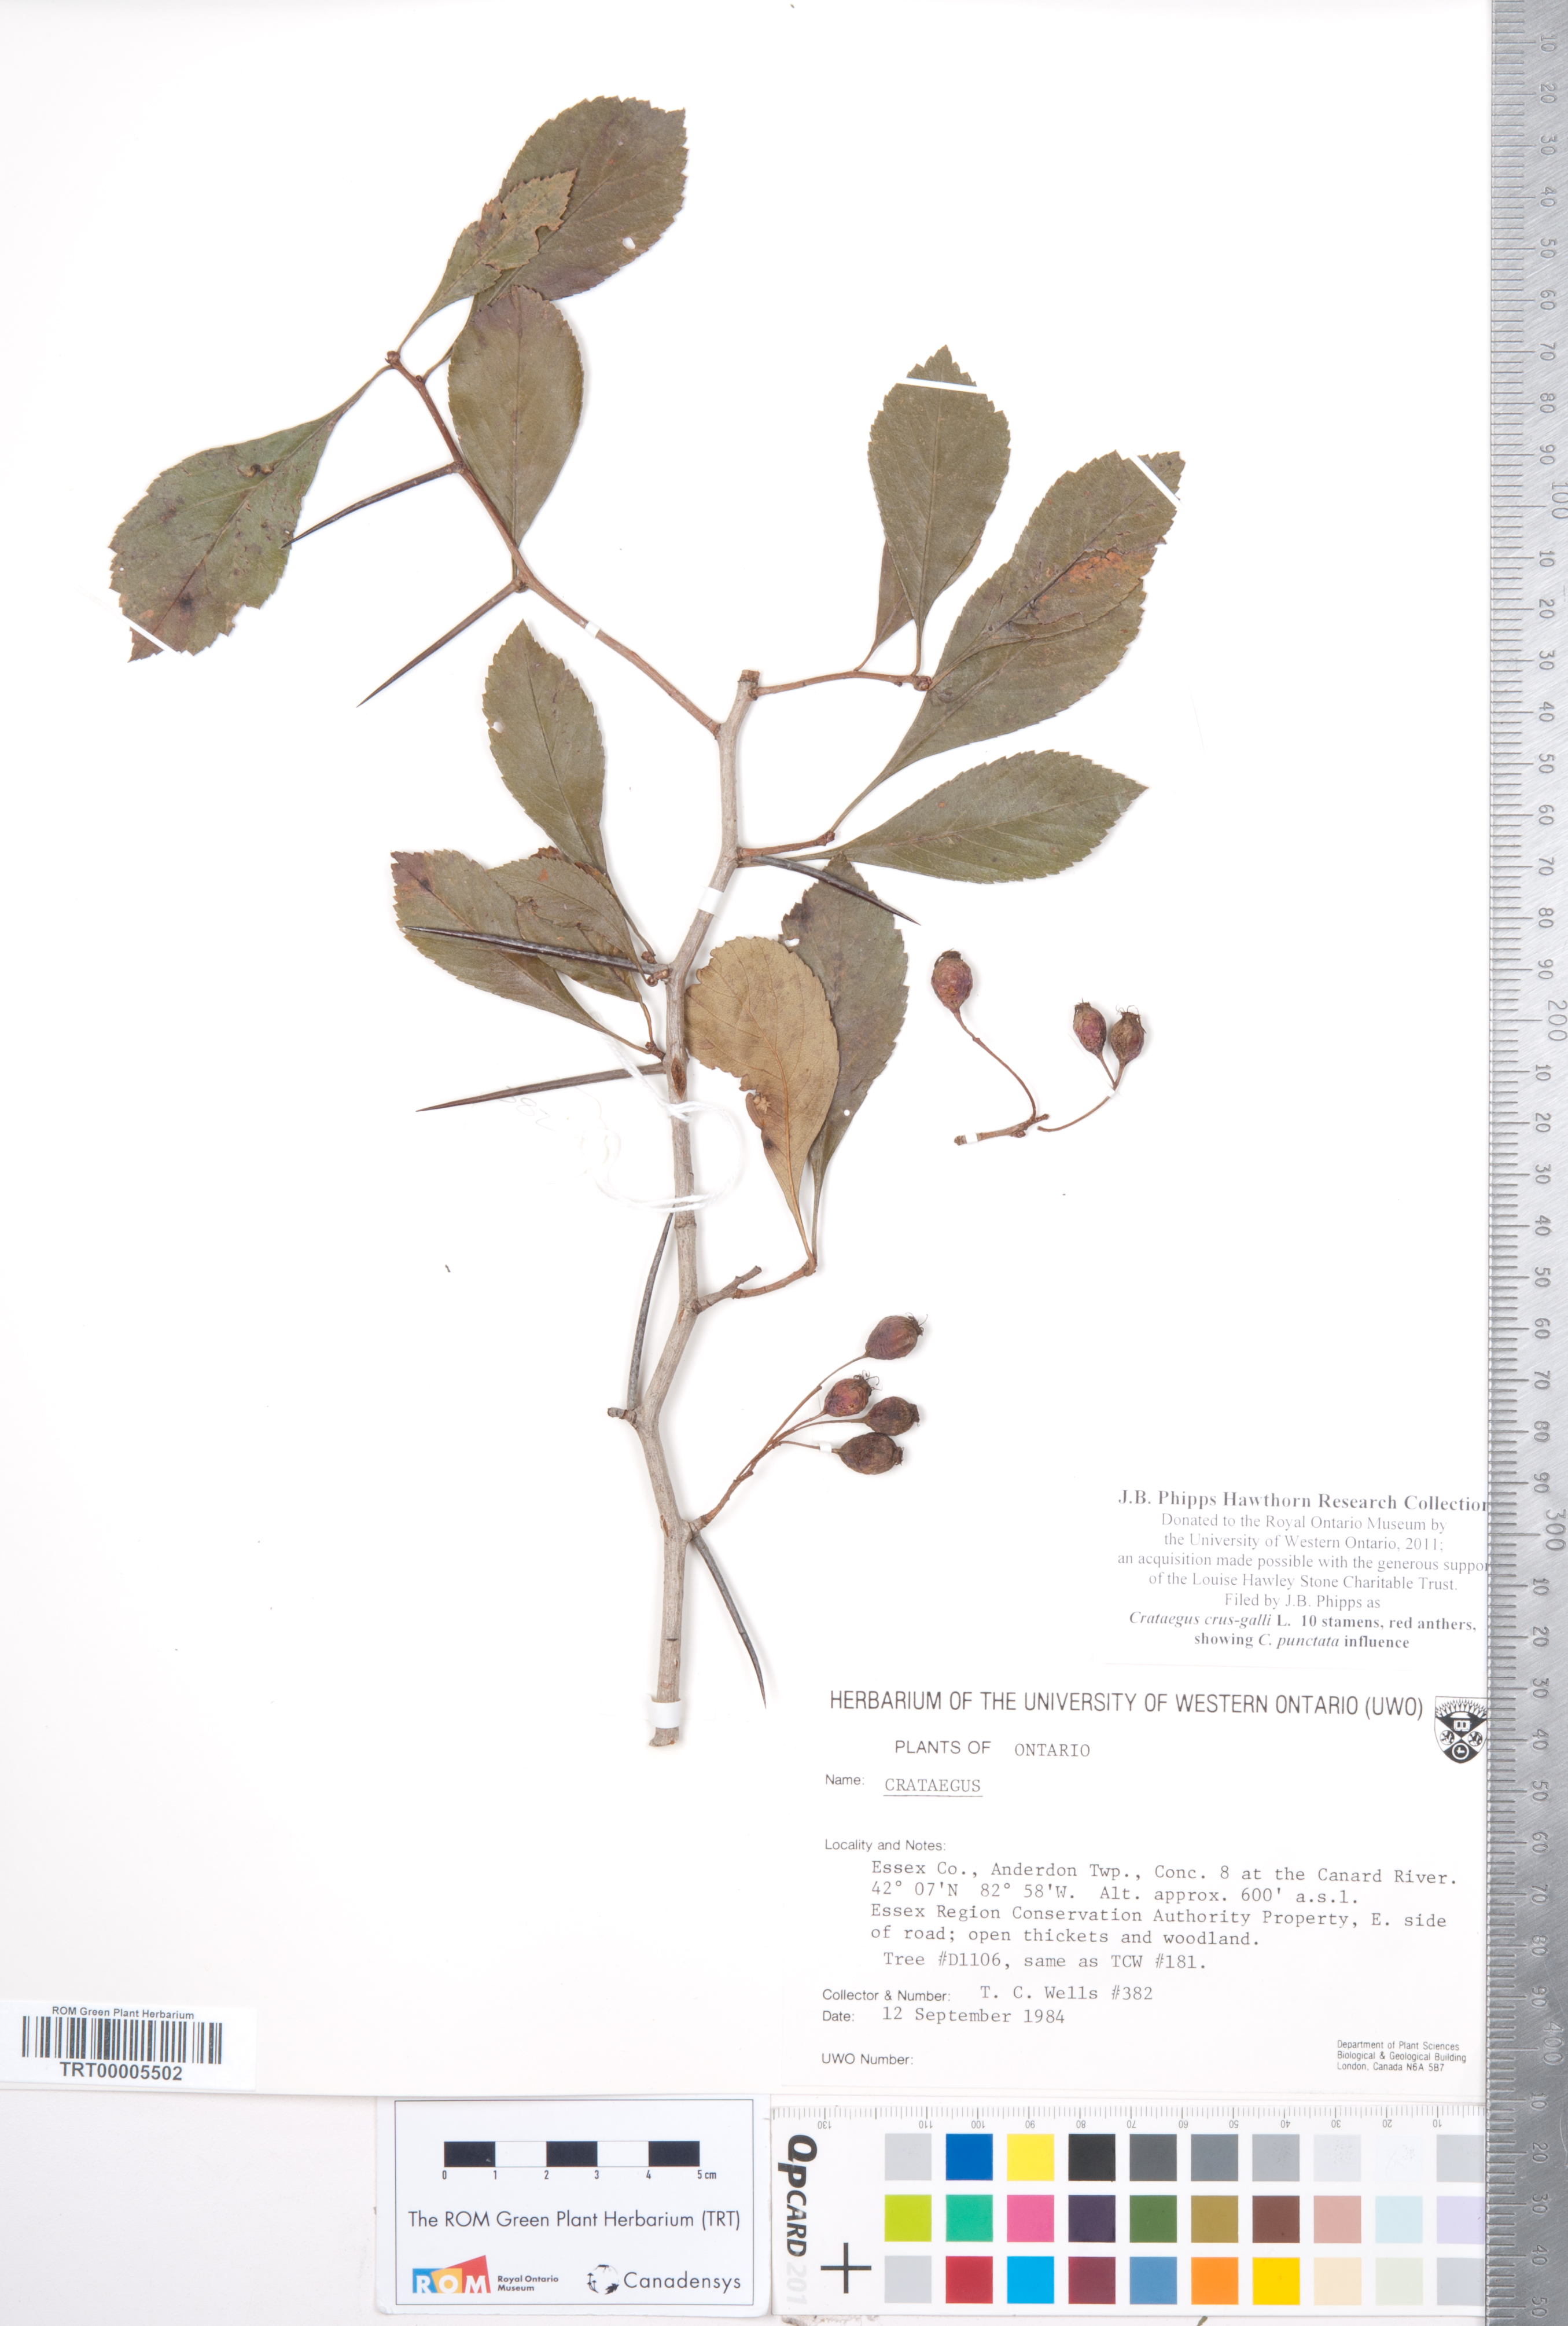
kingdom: Plantae
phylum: Tracheophyta
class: Magnoliopsida
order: Rosales
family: Rosaceae
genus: Crataegus
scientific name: Crataegus crus-galli
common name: Cockspurthorn
